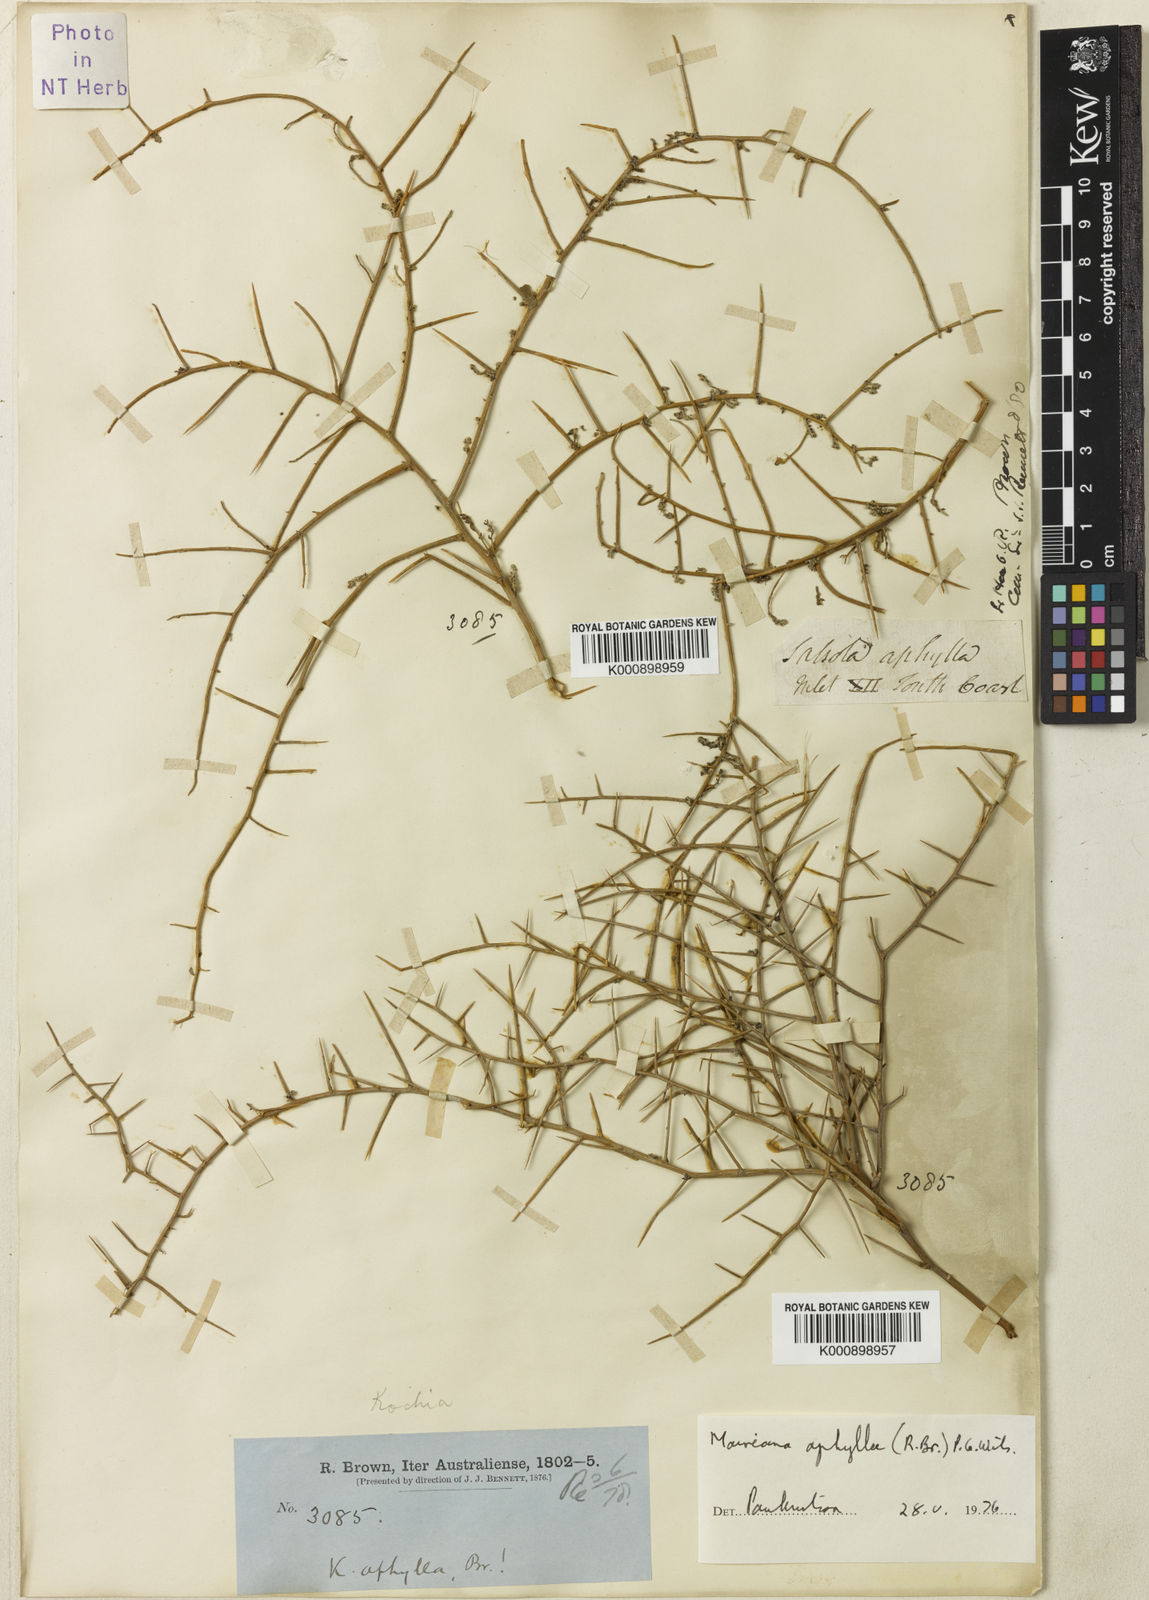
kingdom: Plantae
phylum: Tracheophyta
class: Magnoliopsida
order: Caryophyllales
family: Amaranthaceae
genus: Maireana
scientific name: Maireana aphylla
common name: Cottonbush
